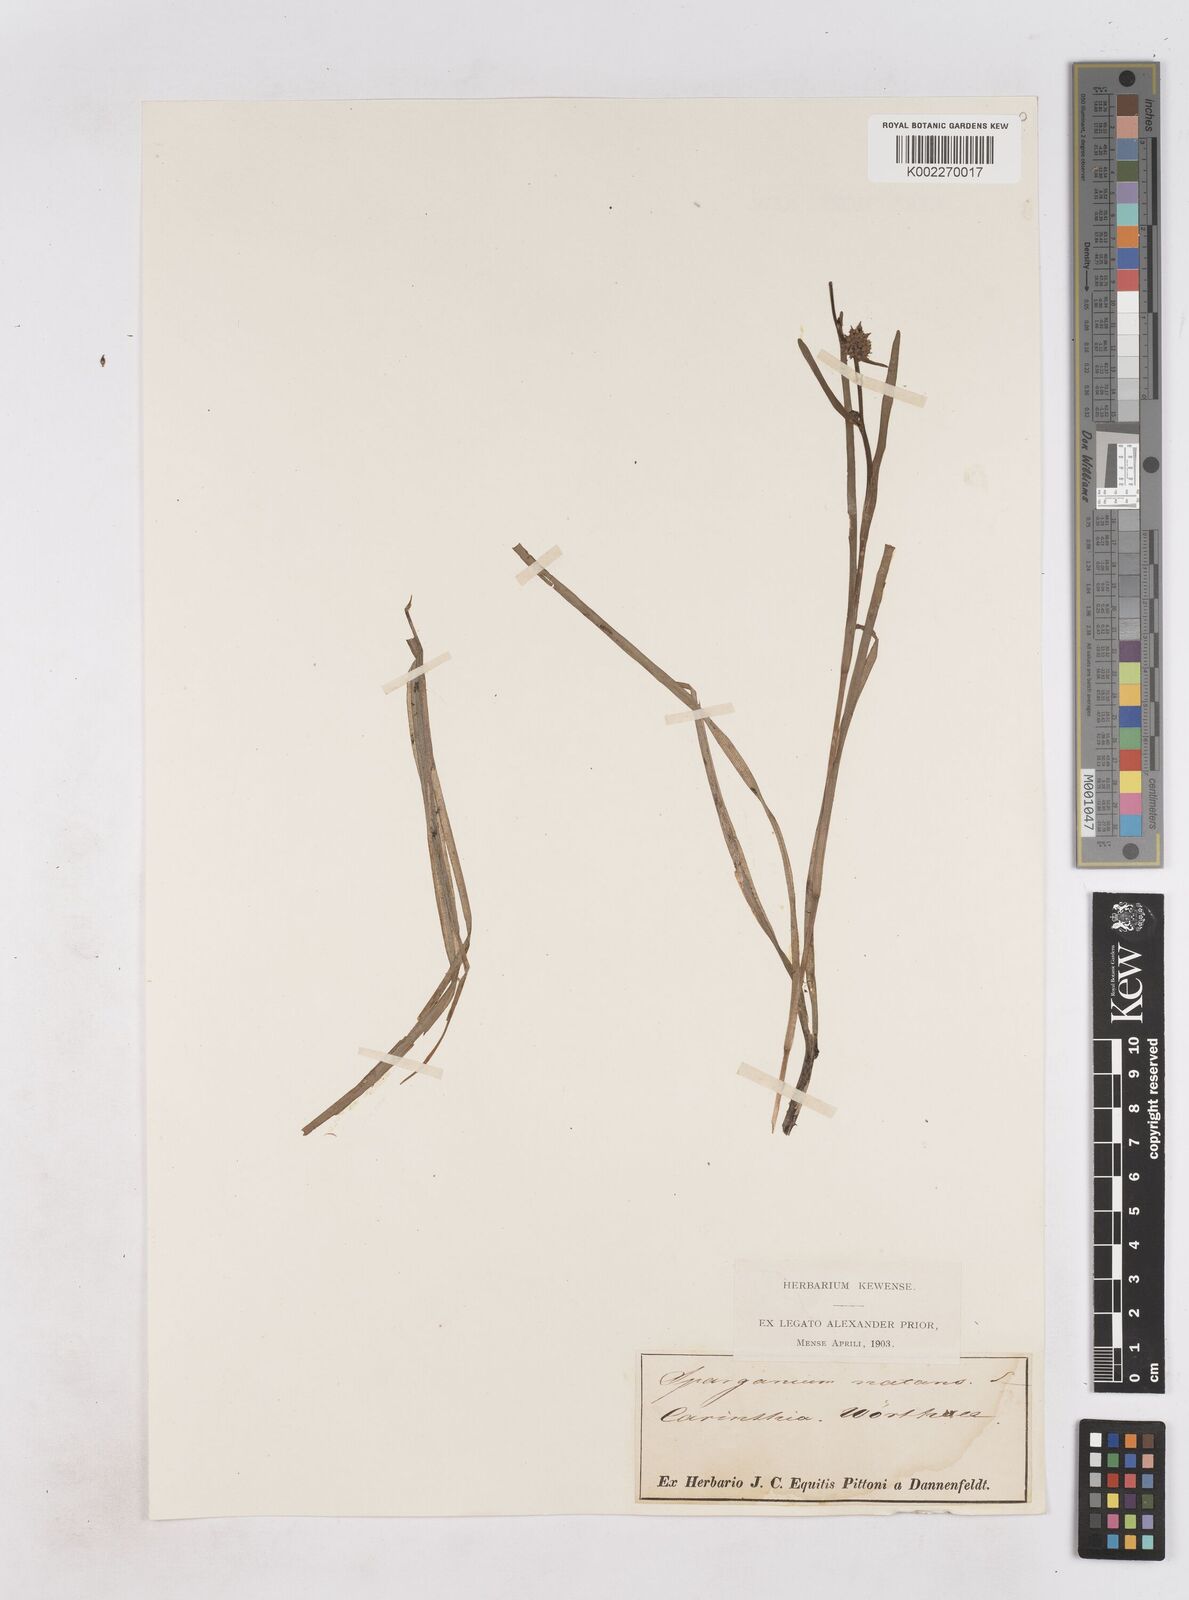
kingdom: Plantae
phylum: Tracheophyta
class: Liliopsida
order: Poales
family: Typhaceae
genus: Sparganium
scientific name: Sparganium gramineum
